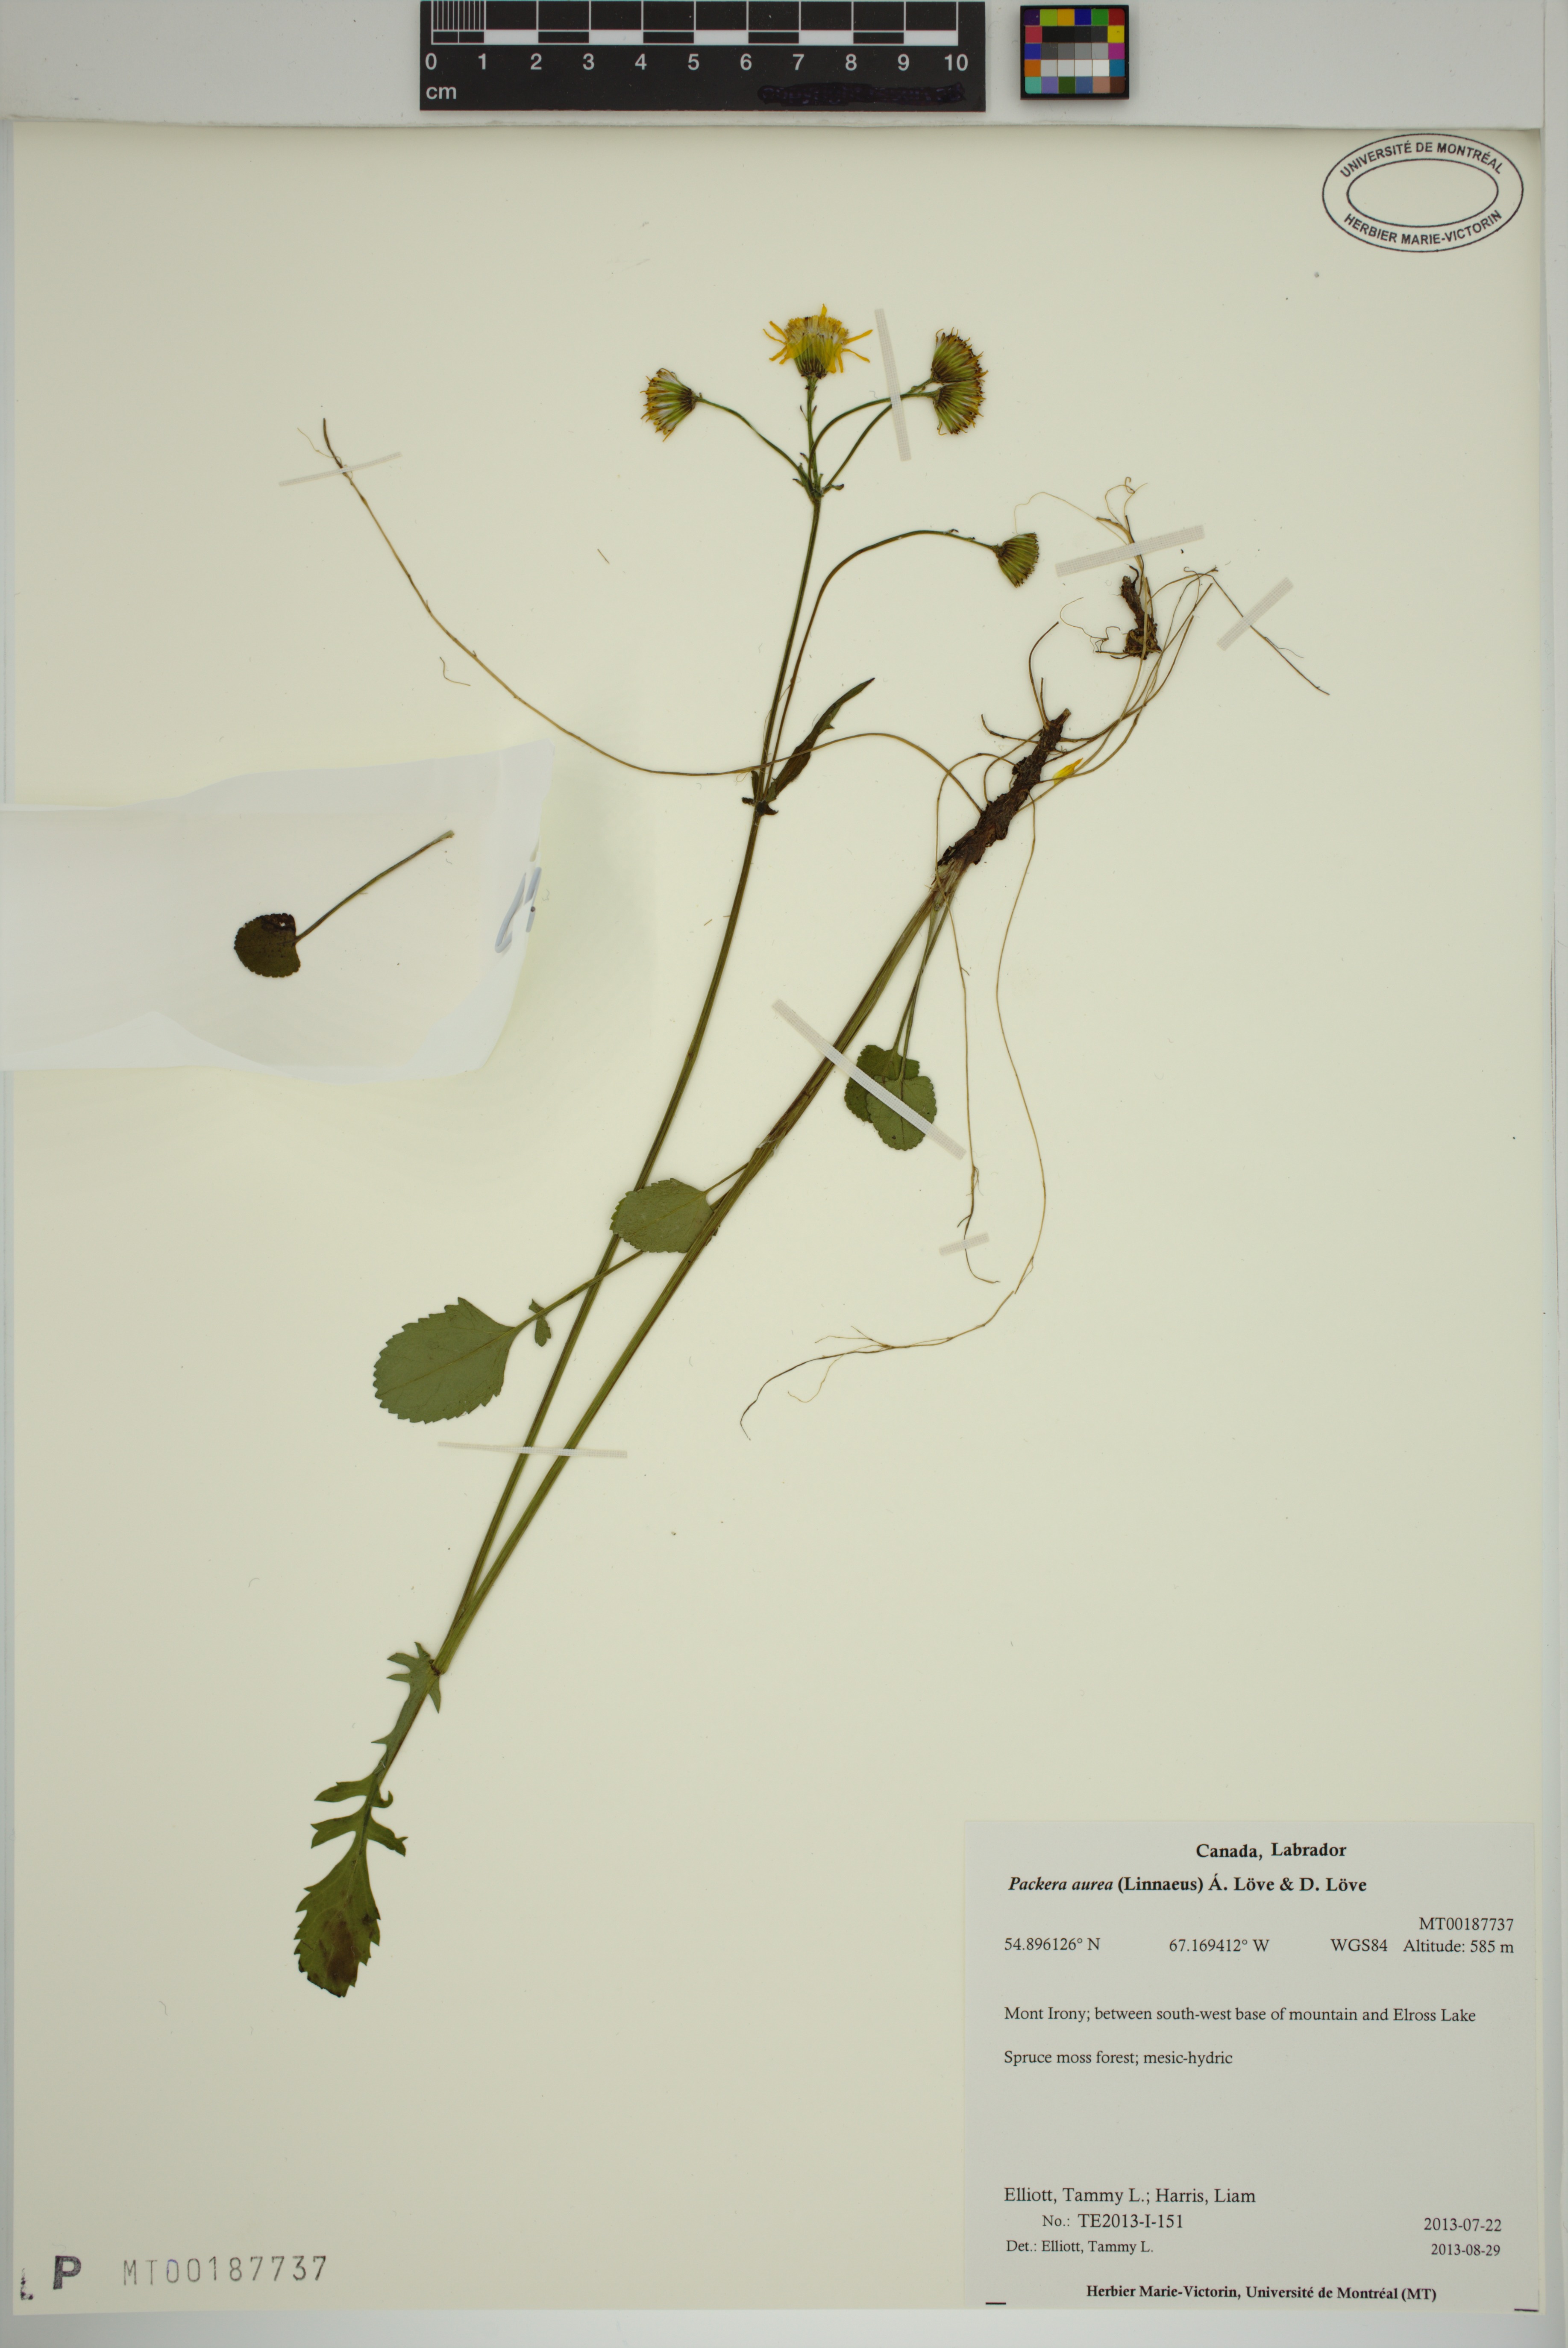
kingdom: Plantae
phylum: Tracheophyta
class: Magnoliopsida
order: Asterales
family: Asteraceae
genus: Packera
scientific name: Packera aurea
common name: Golden groundsel
